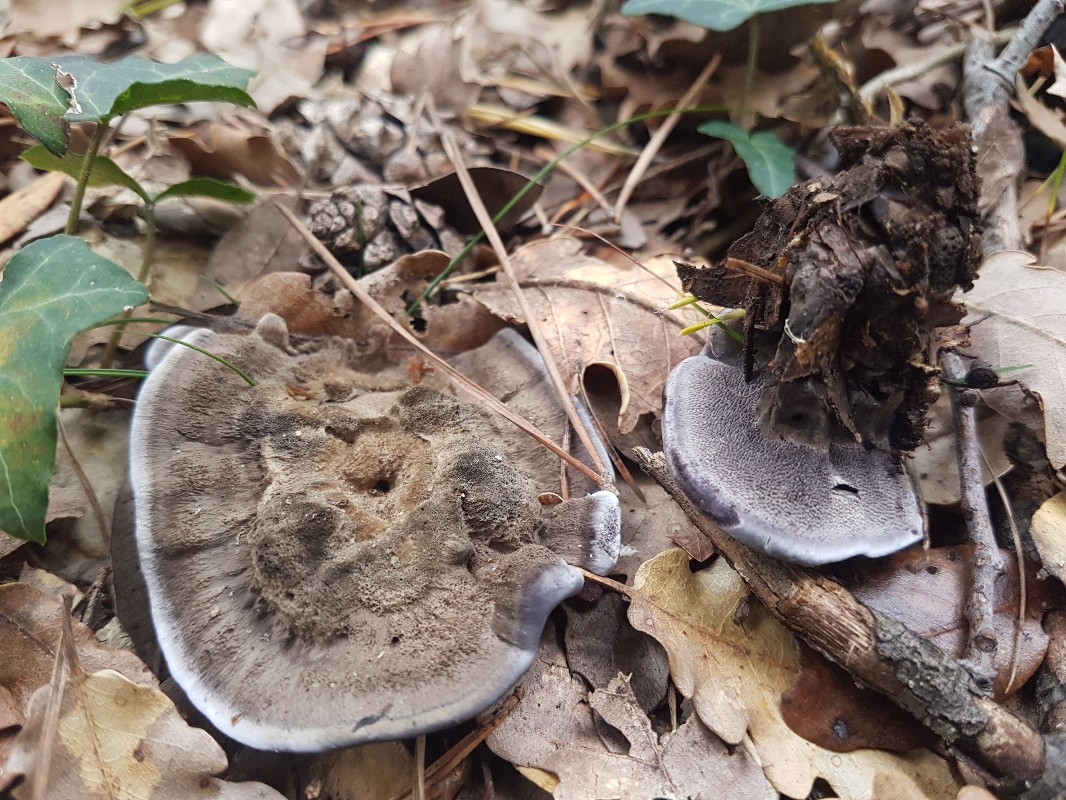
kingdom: Fungi
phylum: Basidiomycota
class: Agaricomycetes
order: Thelephorales
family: Thelephoraceae
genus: Phellodon
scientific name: Phellodon
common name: mørk duftpigsvamp
